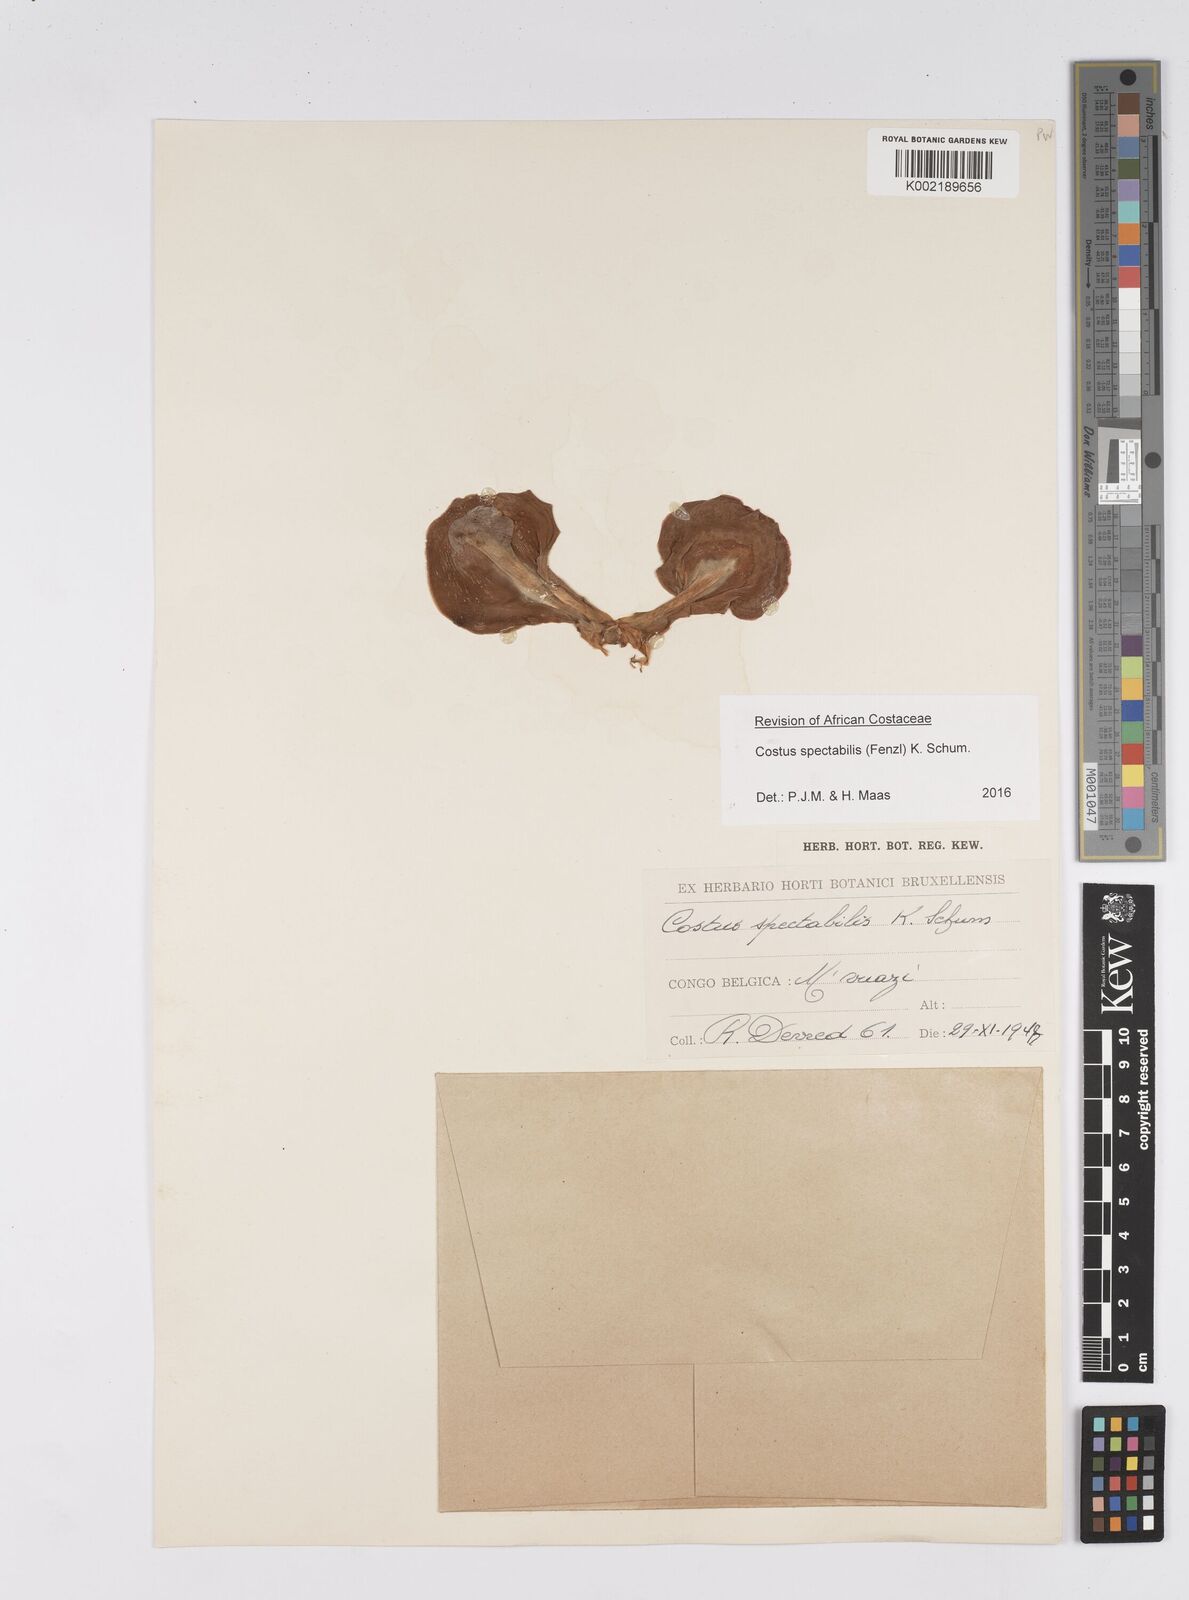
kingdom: Plantae
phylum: Tracheophyta
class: Liliopsida
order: Zingiberales
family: Costaceae
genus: Costus
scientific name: Costus spectabilis
